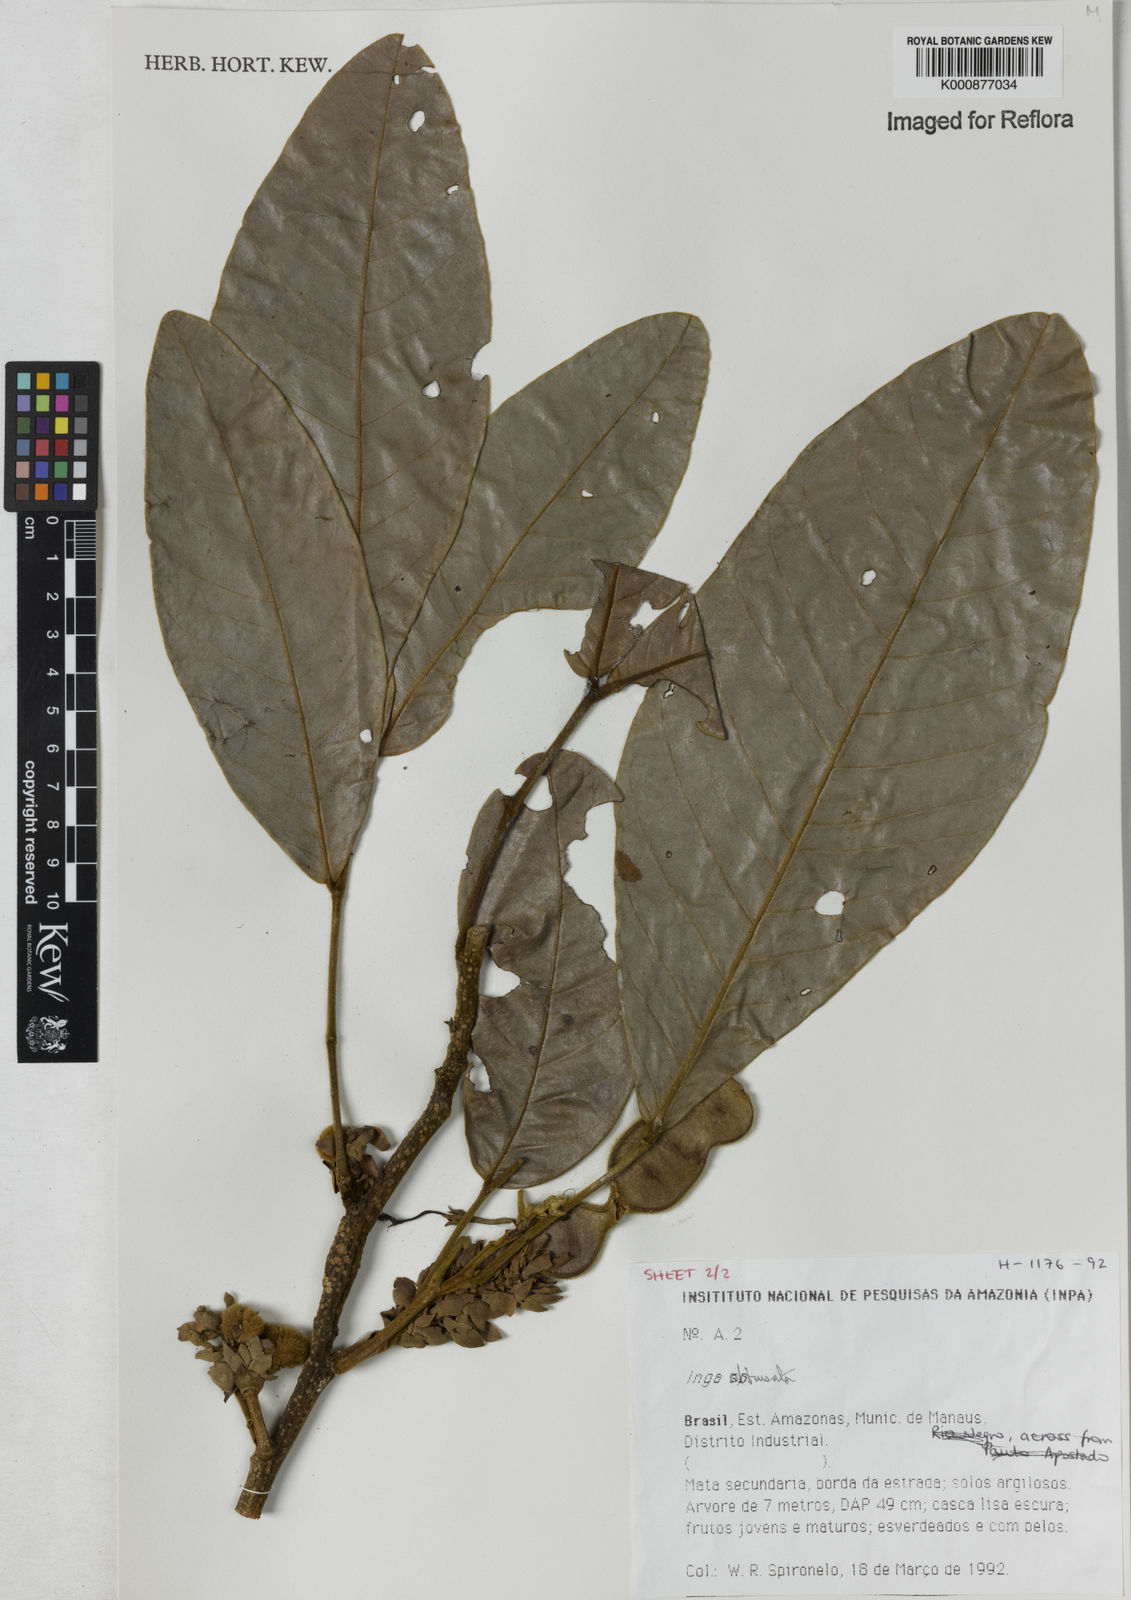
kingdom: Plantae
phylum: Tracheophyta
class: Magnoliopsida
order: Fabales
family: Fabaceae
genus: Inga
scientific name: Inga obtusata
